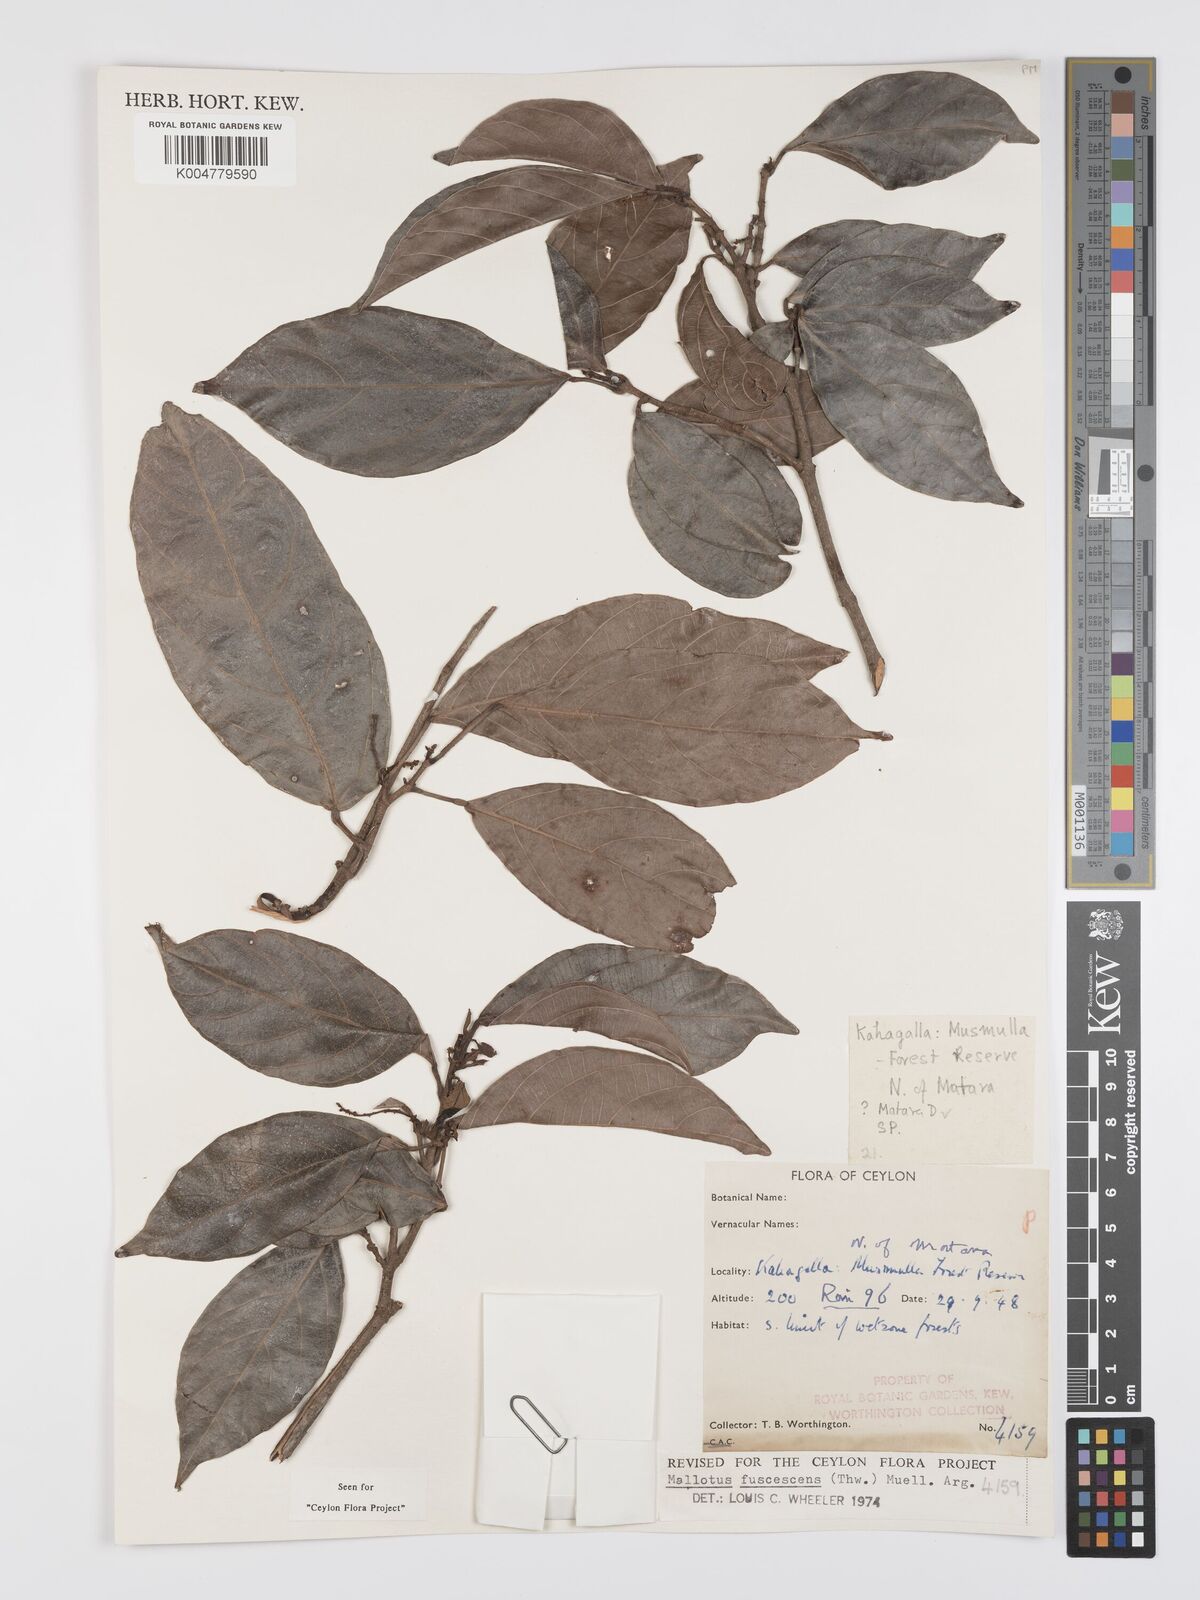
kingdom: Plantae
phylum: Tracheophyta
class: Magnoliopsida
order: Malpighiales
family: Euphorbiaceae
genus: Mallotus
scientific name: Mallotus fuscescens
